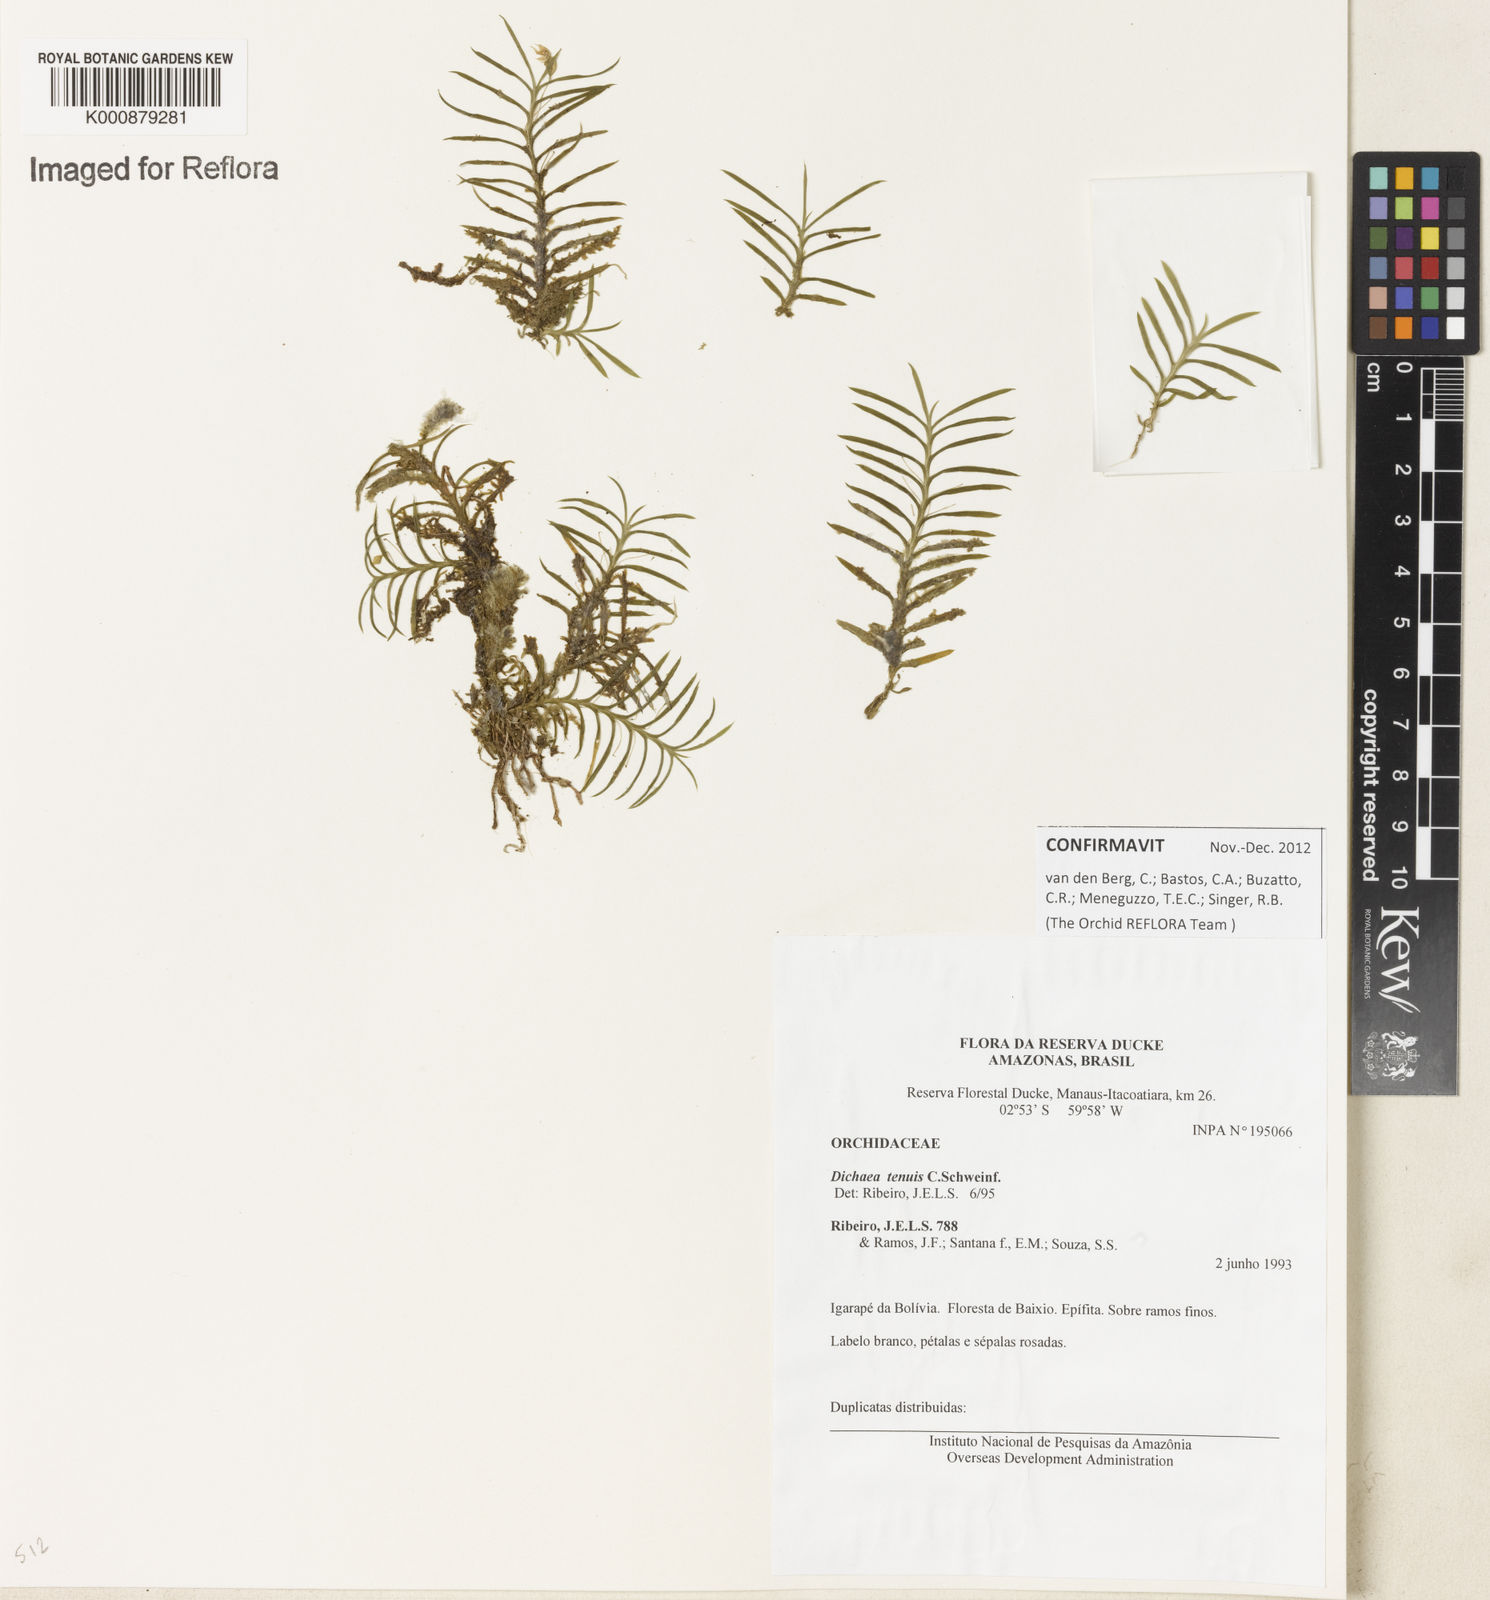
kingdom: Plantae
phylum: Tracheophyta
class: Liliopsida
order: Asparagales
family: Orchidaceae
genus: Dichaea
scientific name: Dichaea tenuis
